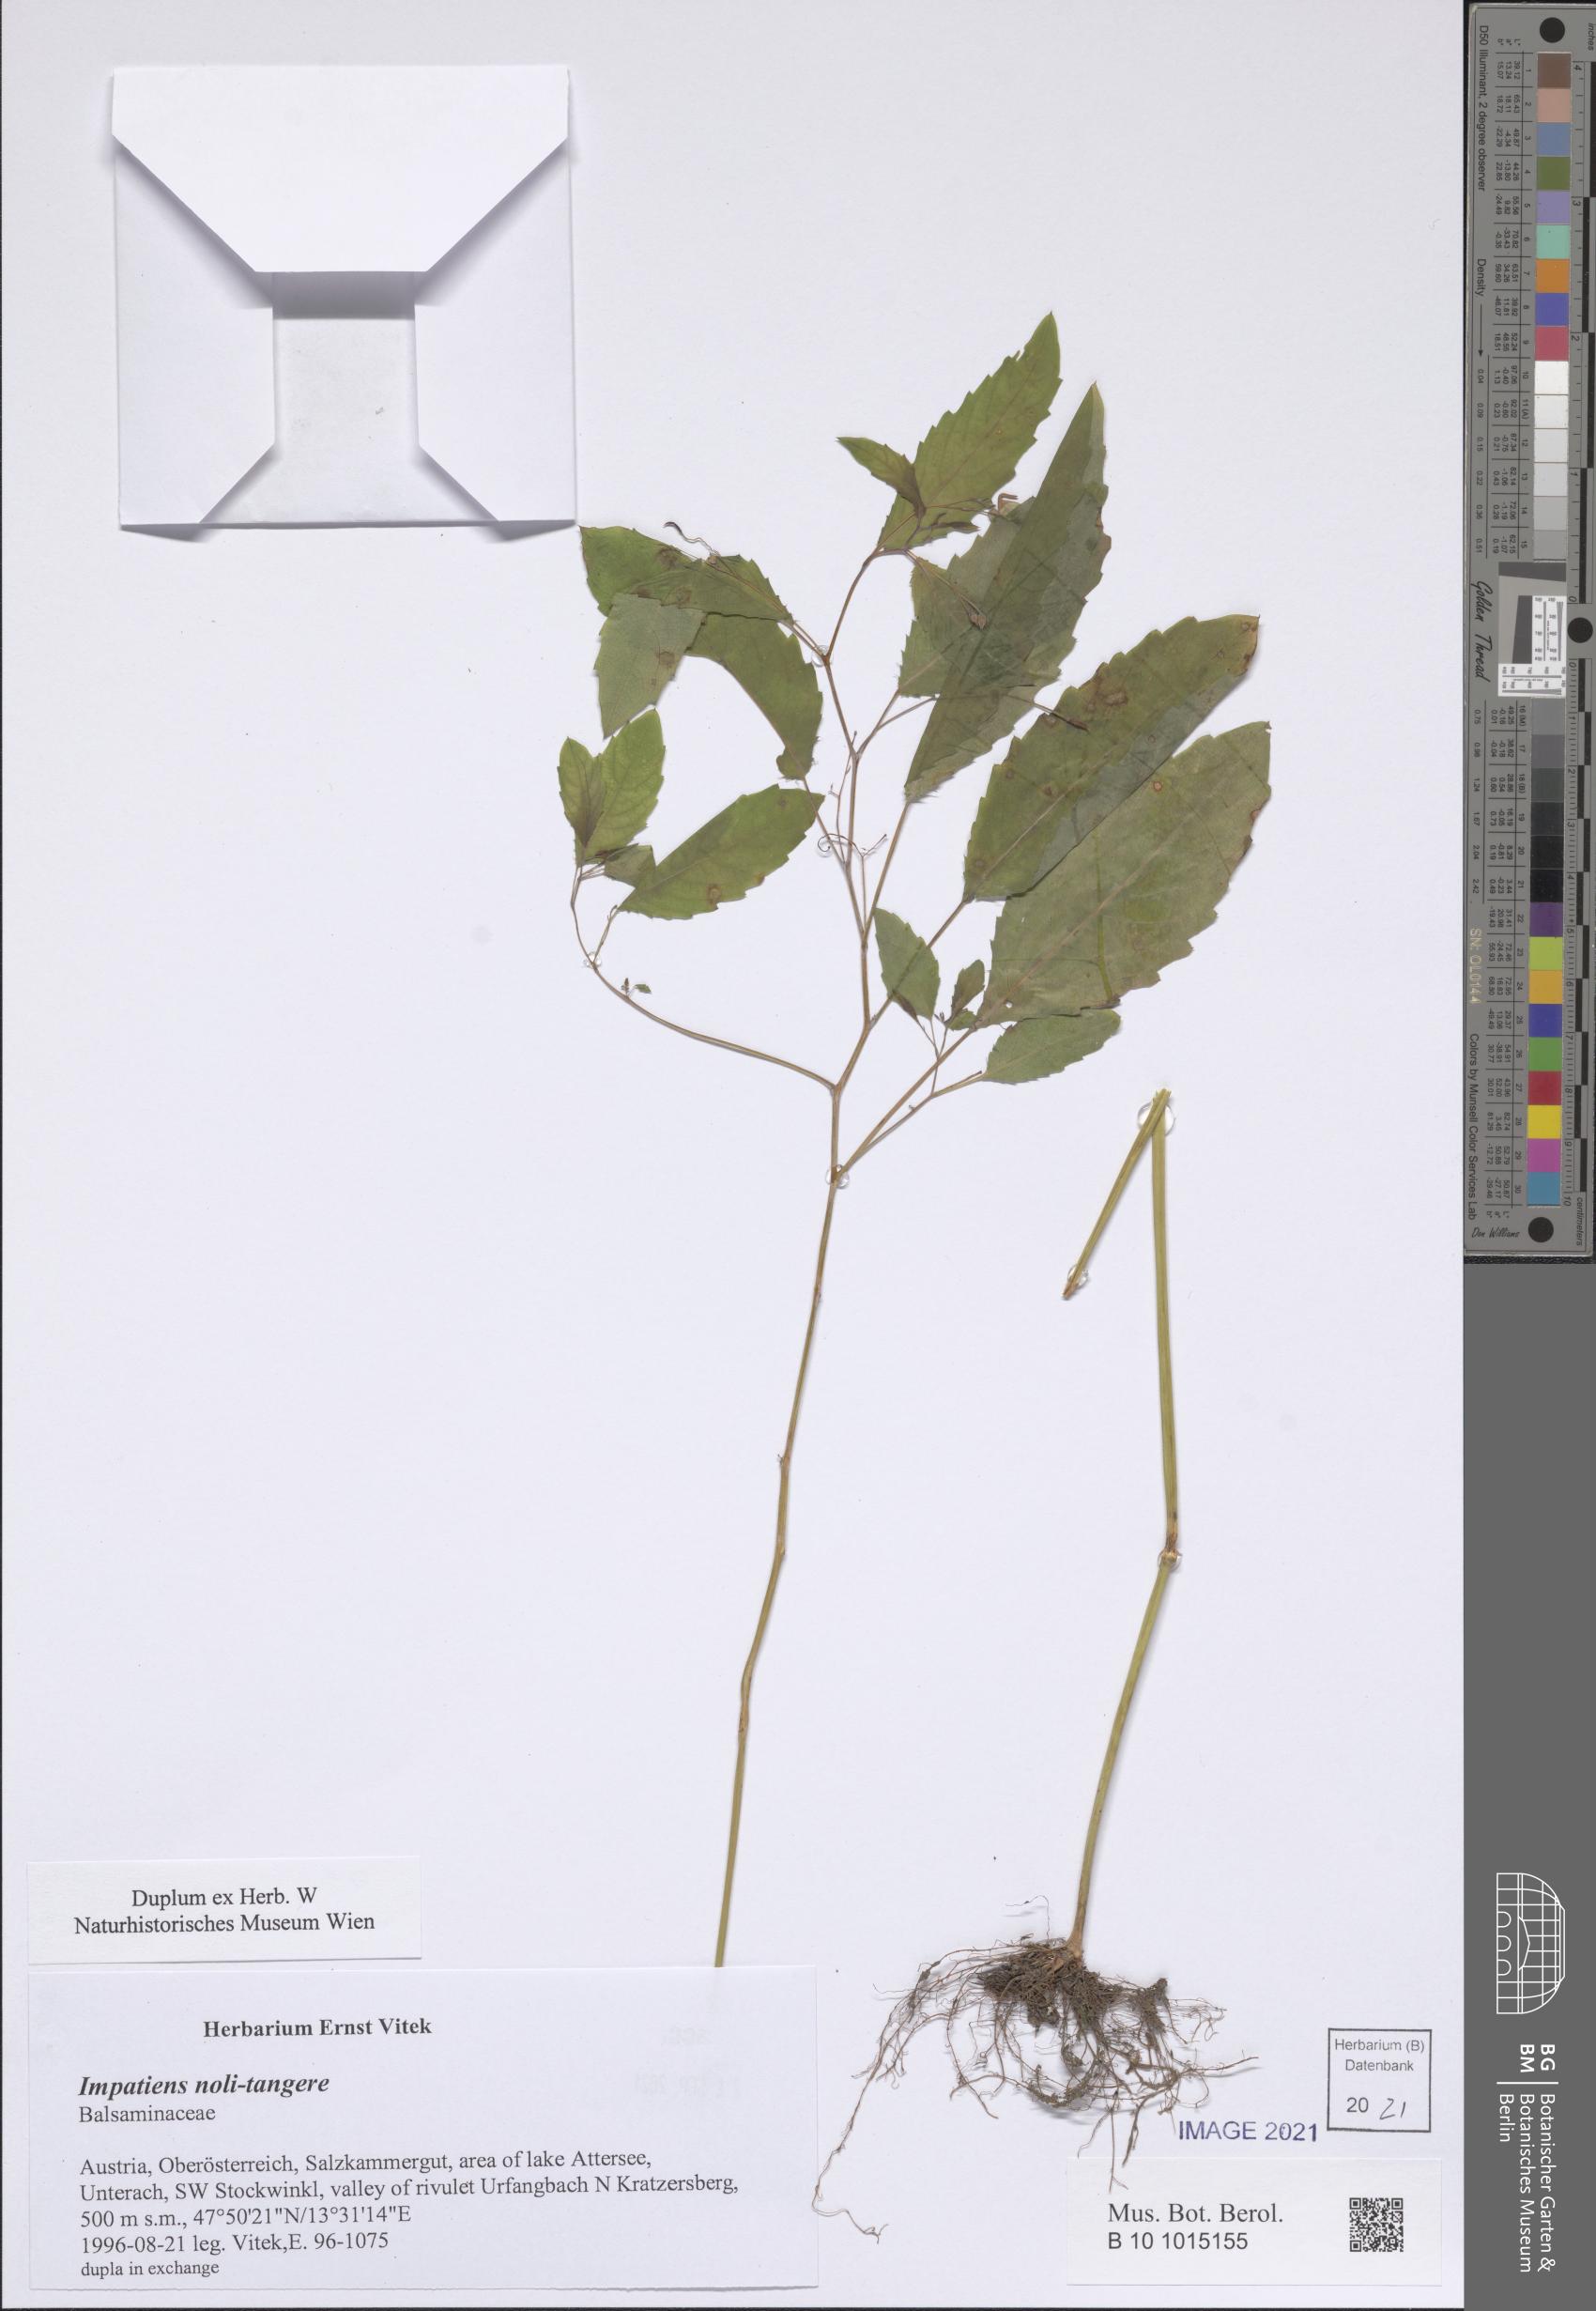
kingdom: Plantae
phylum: Tracheophyta
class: Magnoliopsida
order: Ericales
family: Balsaminaceae
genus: Impatiens
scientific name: Impatiens noli-tangere
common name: Touch-me-not balsam
